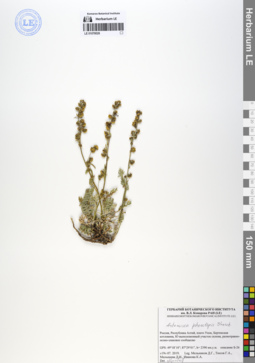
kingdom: Plantae
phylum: Tracheophyta
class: Magnoliopsida
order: Asterales
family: Asteraceae
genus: Artemisia
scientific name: Artemisia phaeolepis
